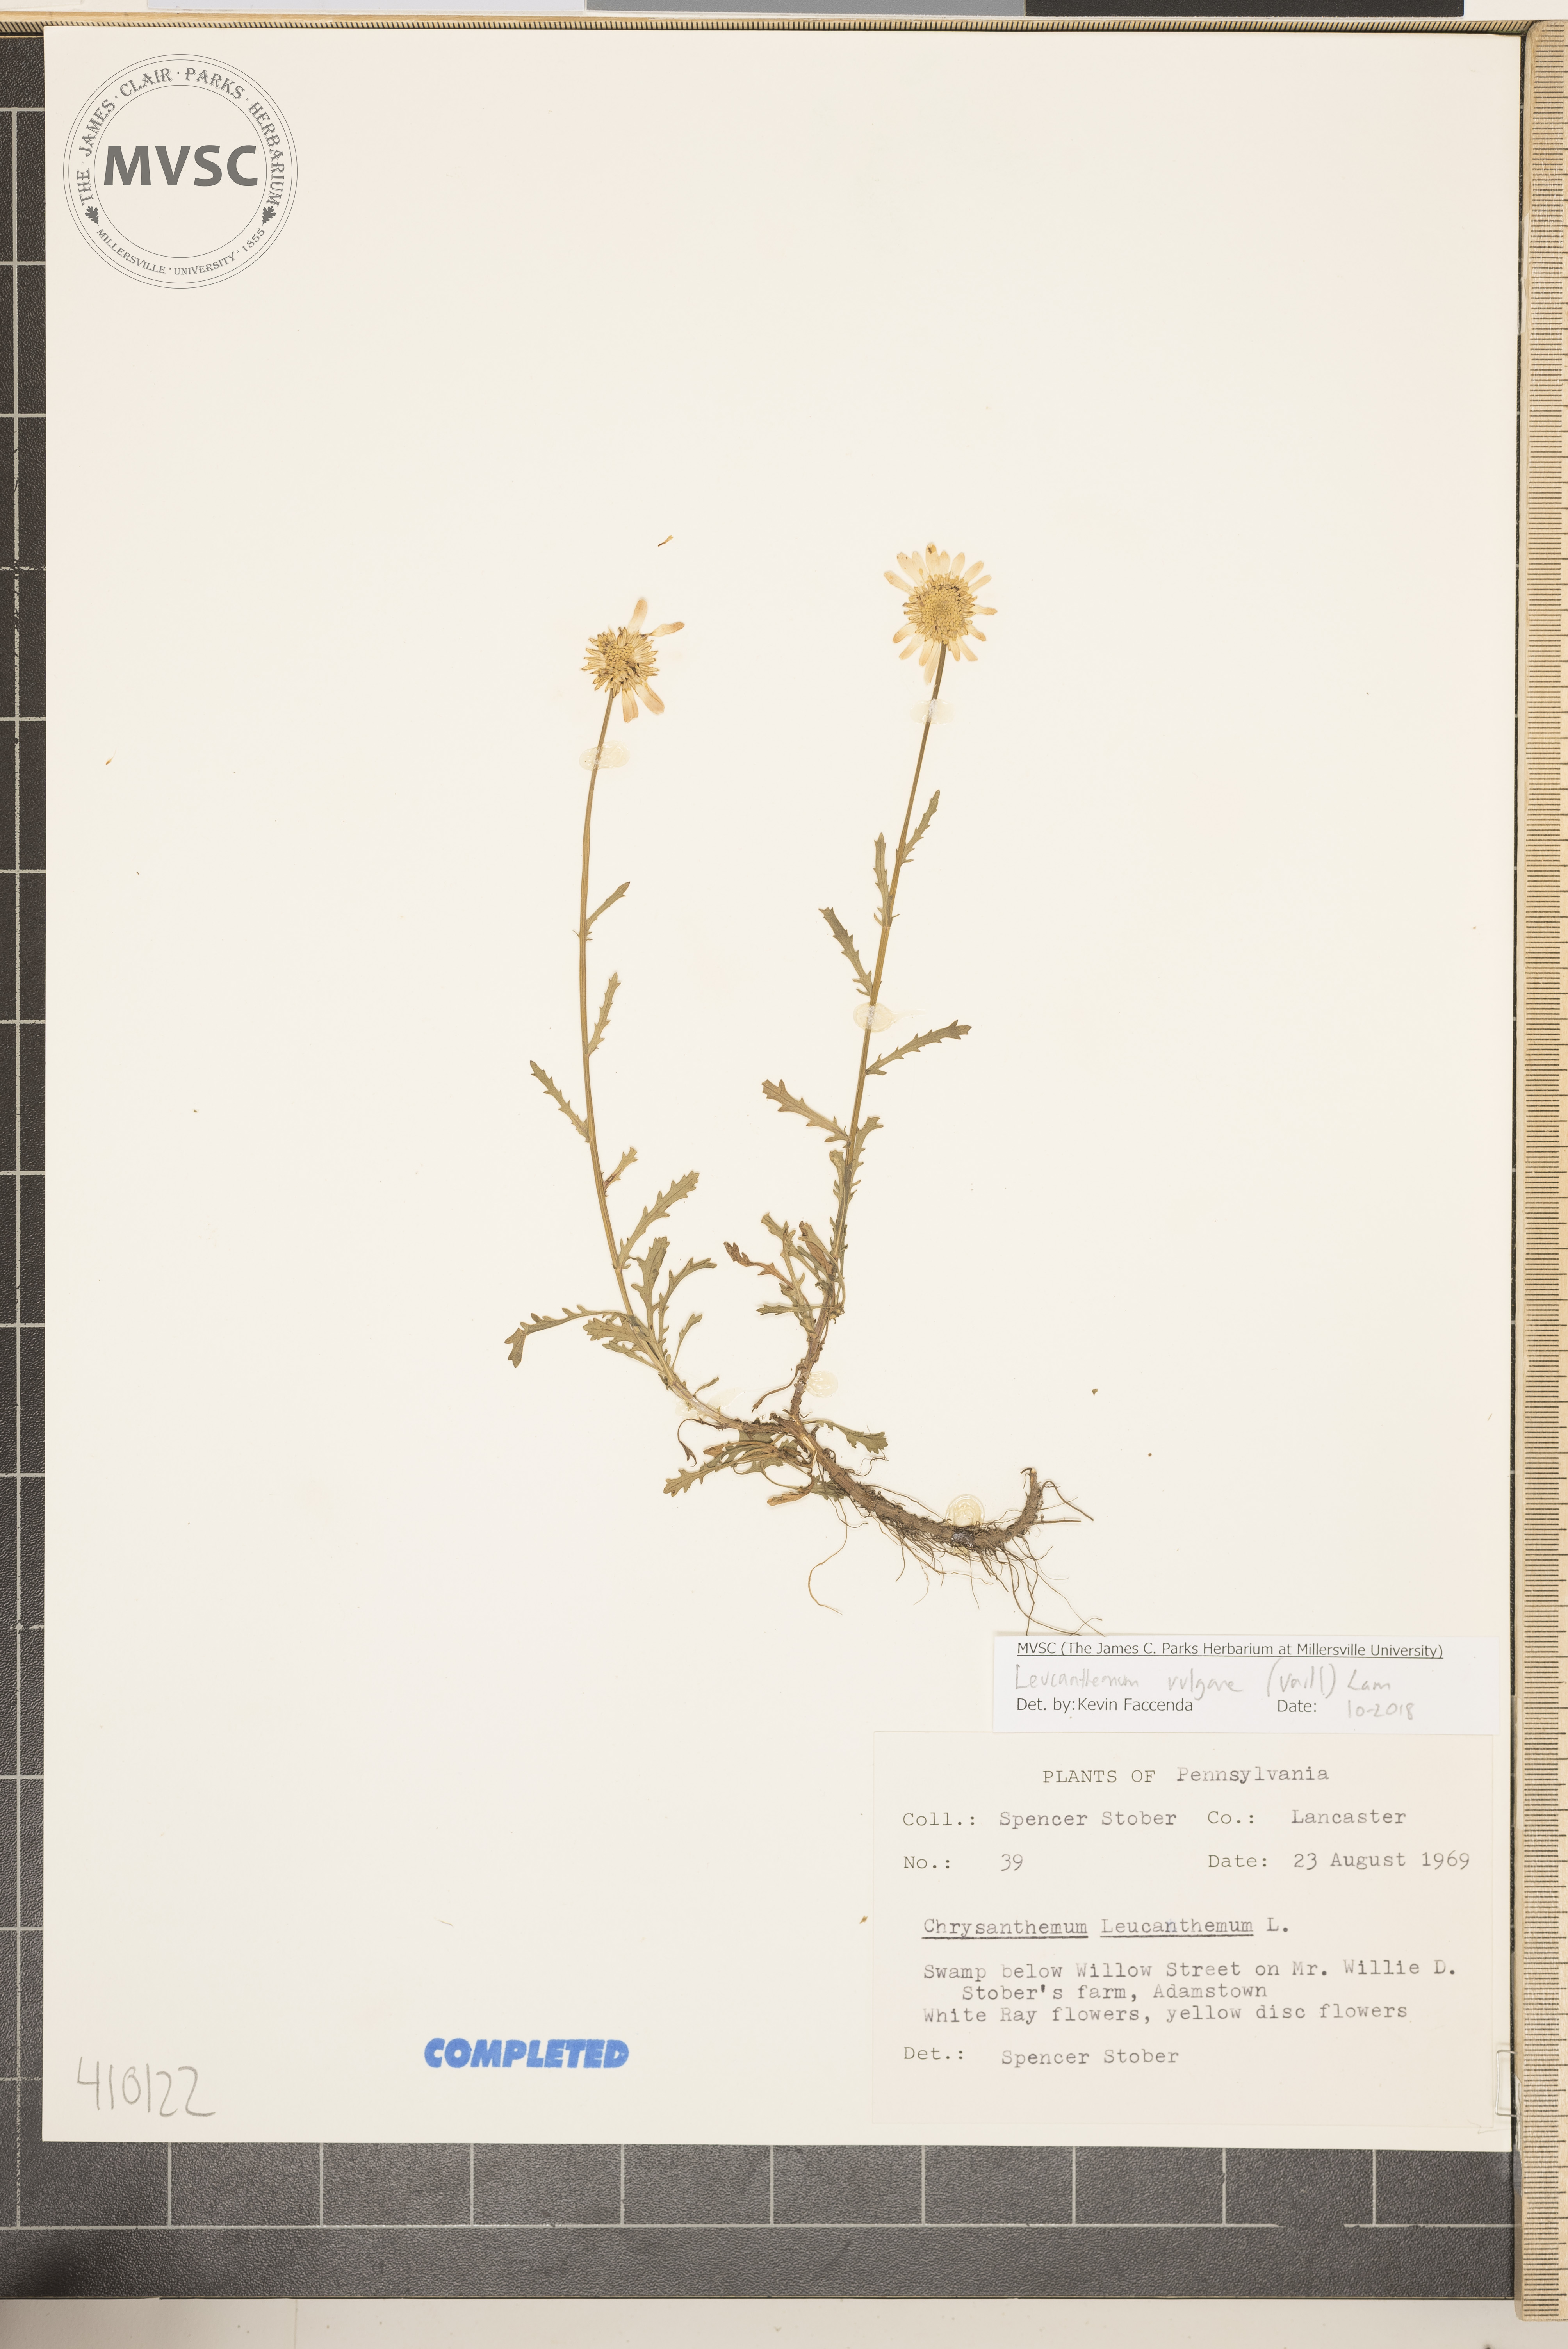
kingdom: Plantae
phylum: Tracheophyta
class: Magnoliopsida
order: Asterales
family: Asteraceae
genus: Leucanthemum
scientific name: Leucanthemum vulgare
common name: Oxeye daisy
